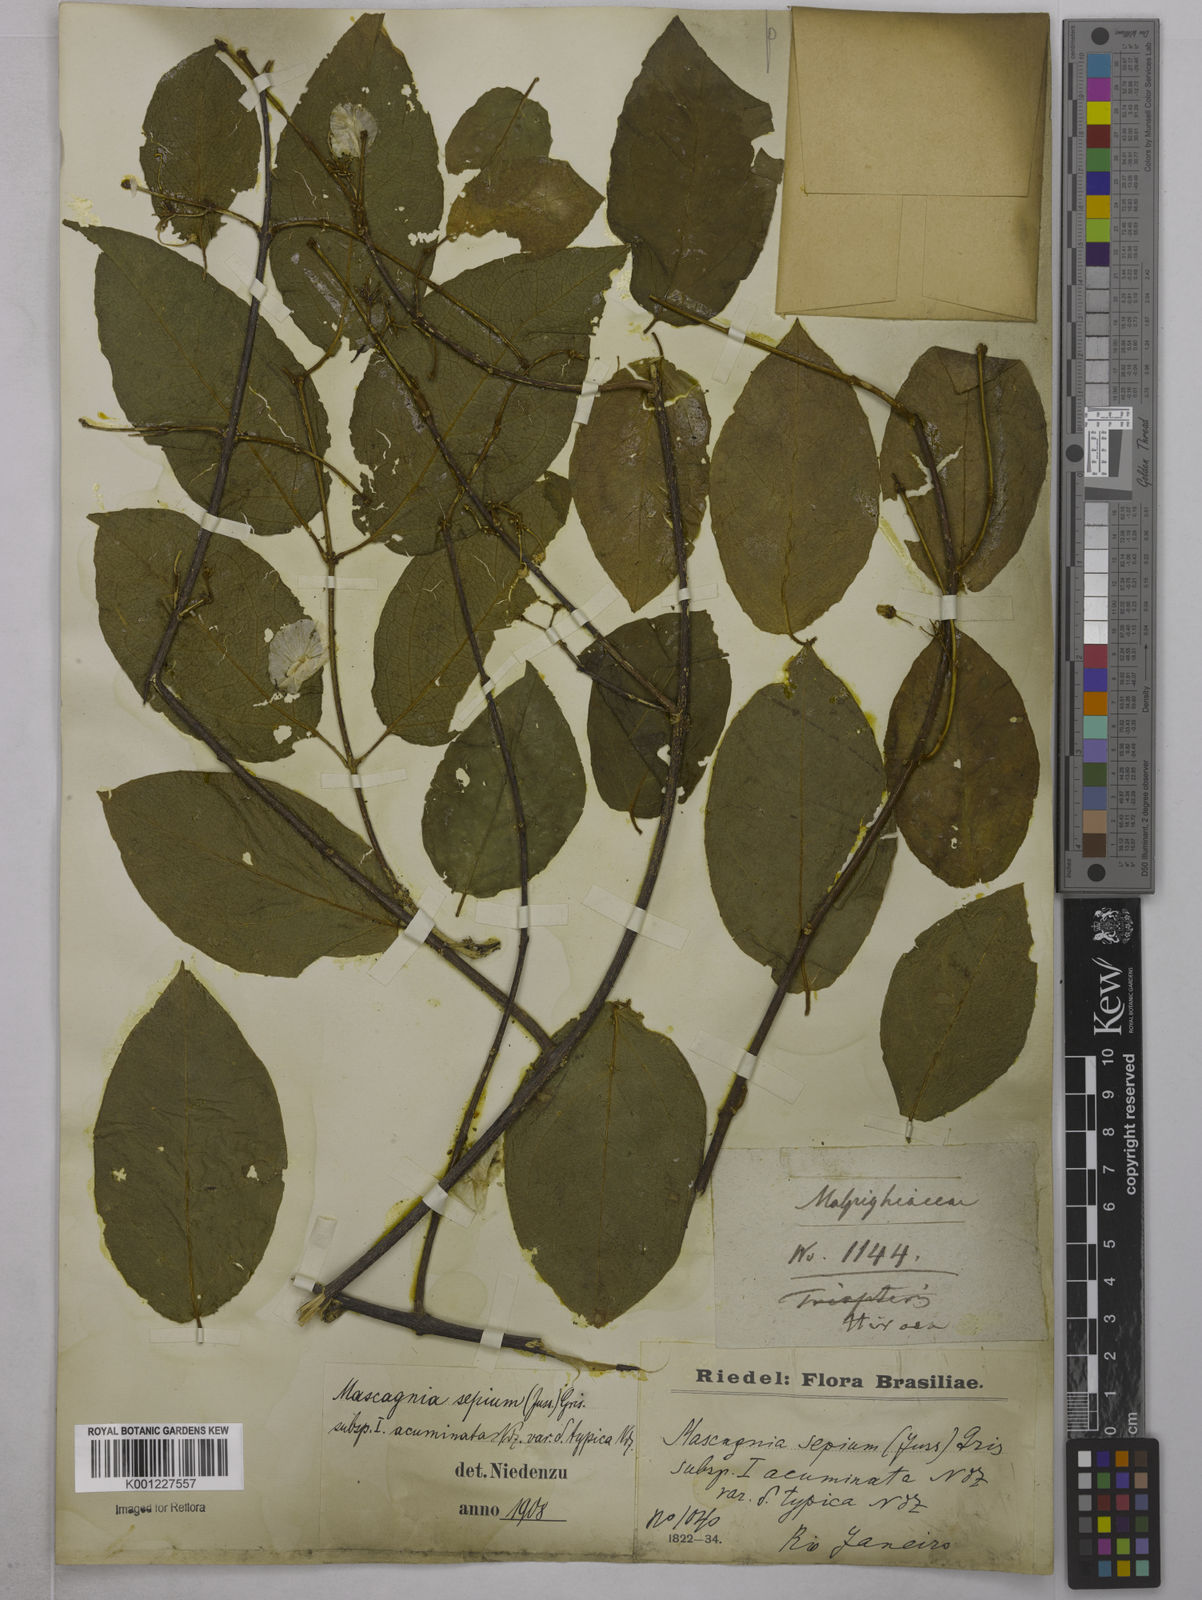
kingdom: Plantae
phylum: Tracheophyta
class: Magnoliopsida
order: Malpighiales
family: Malpighiaceae
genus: Mascagnia
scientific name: Mascagnia sepium
